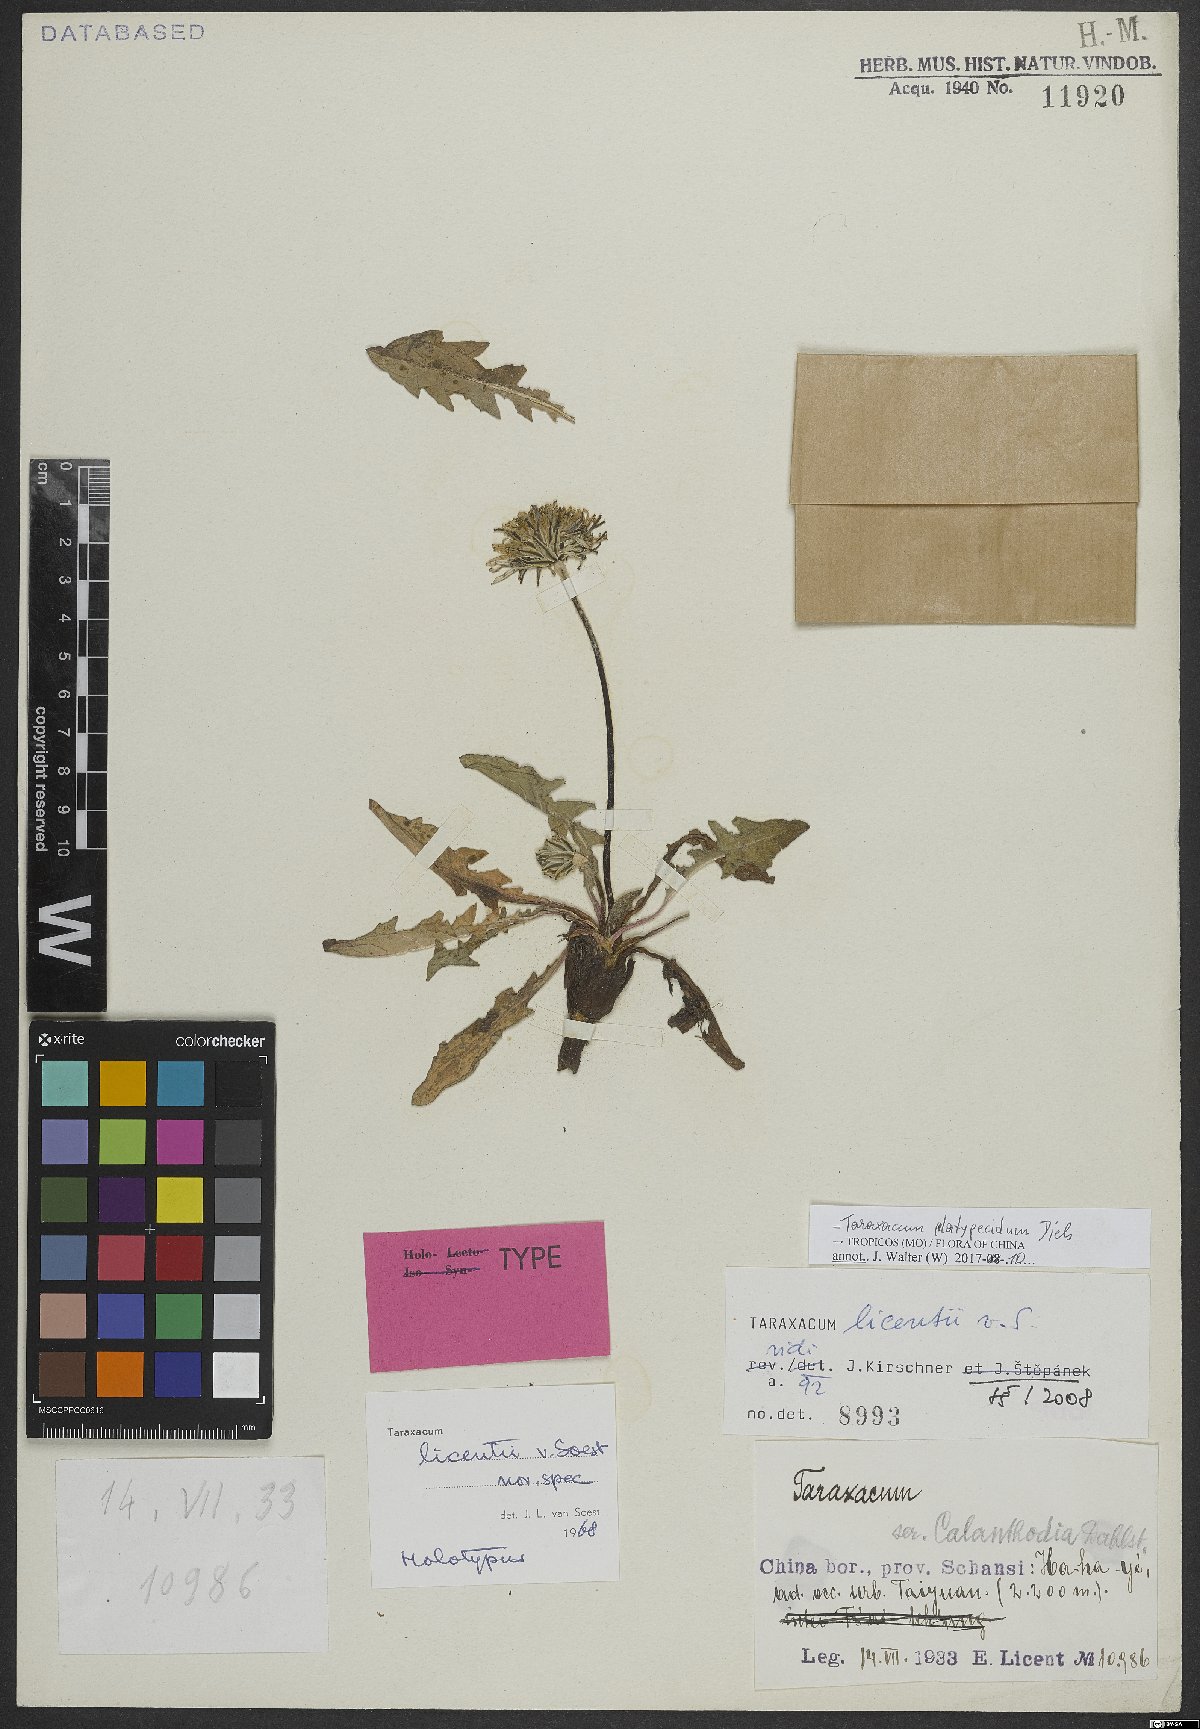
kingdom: Plantae
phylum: Tracheophyta
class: Magnoliopsida
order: Asterales
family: Asteraceae
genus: Taraxacum
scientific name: Taraxacum platypecidum
